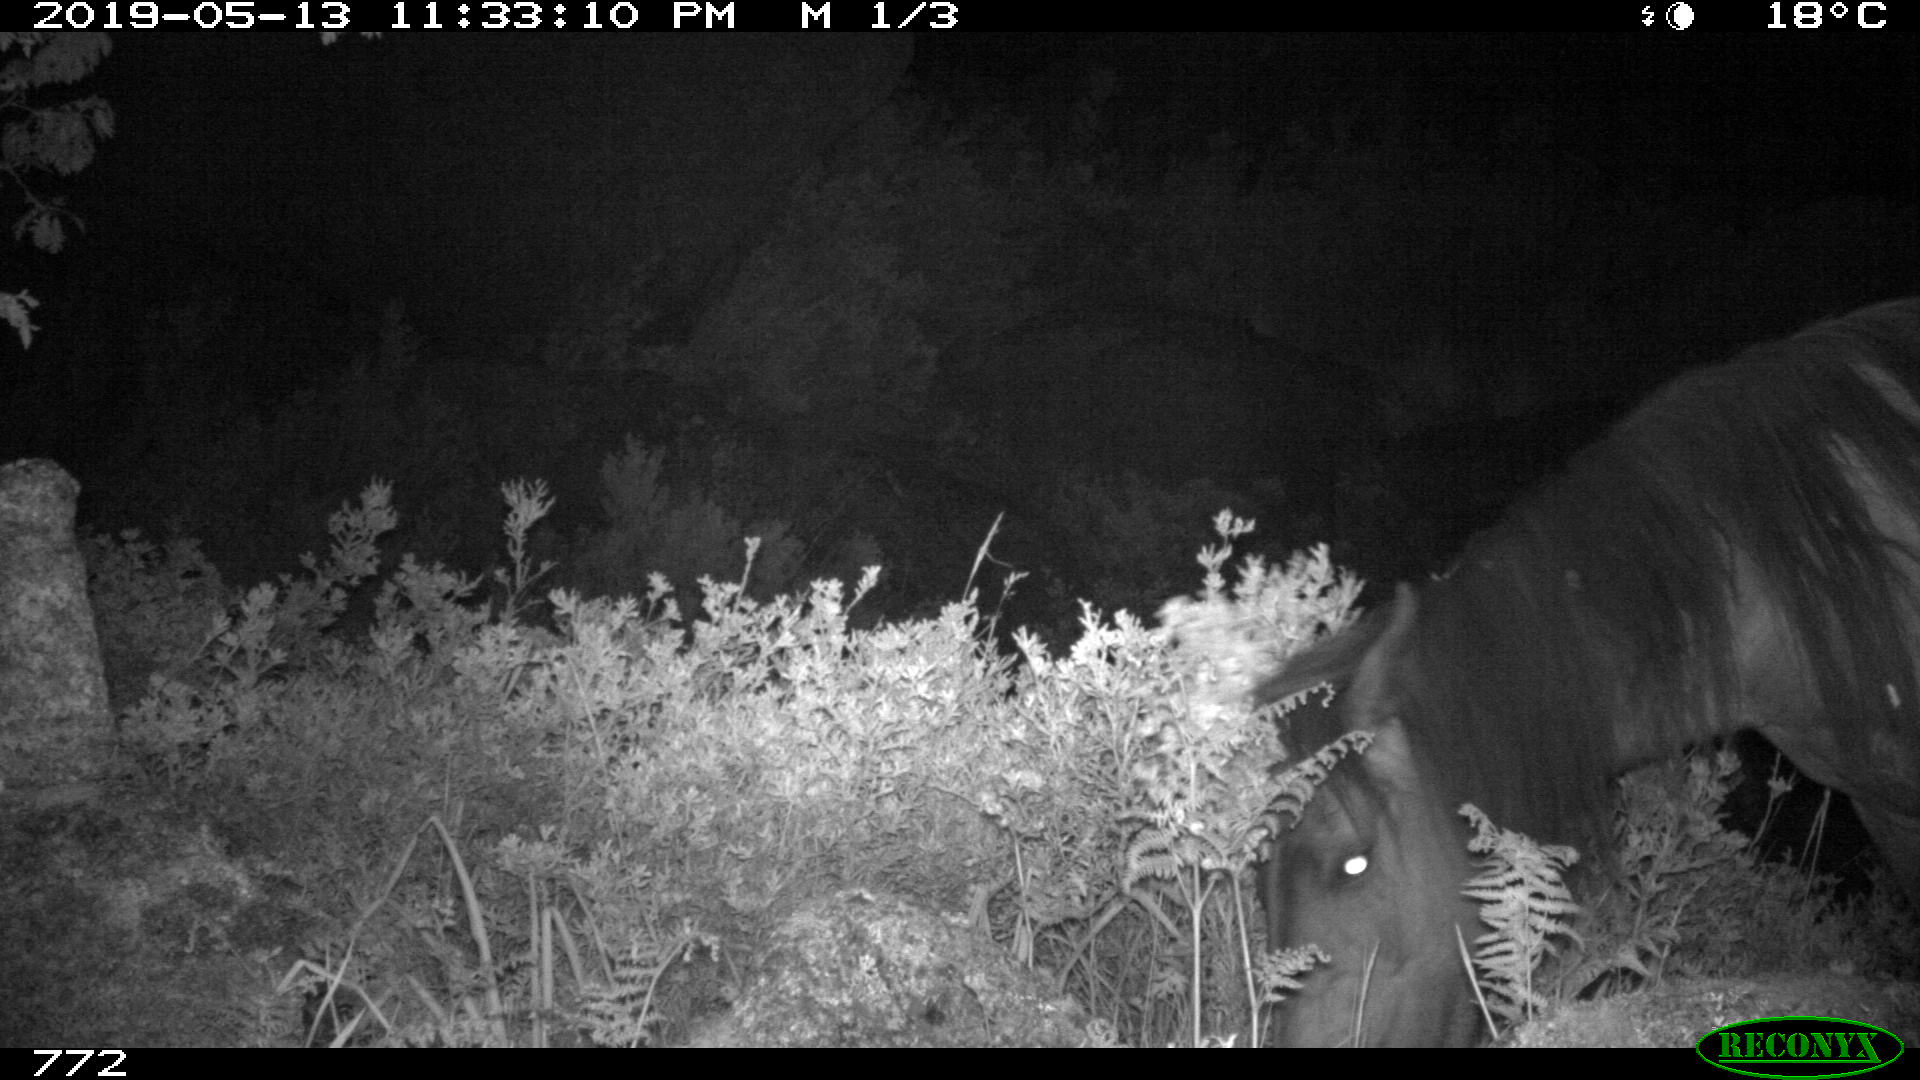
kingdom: Animalia
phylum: Chordata
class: Mammalia
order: Perissodactyla
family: Equidae
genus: Equus
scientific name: Equus caballus
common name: Horse
